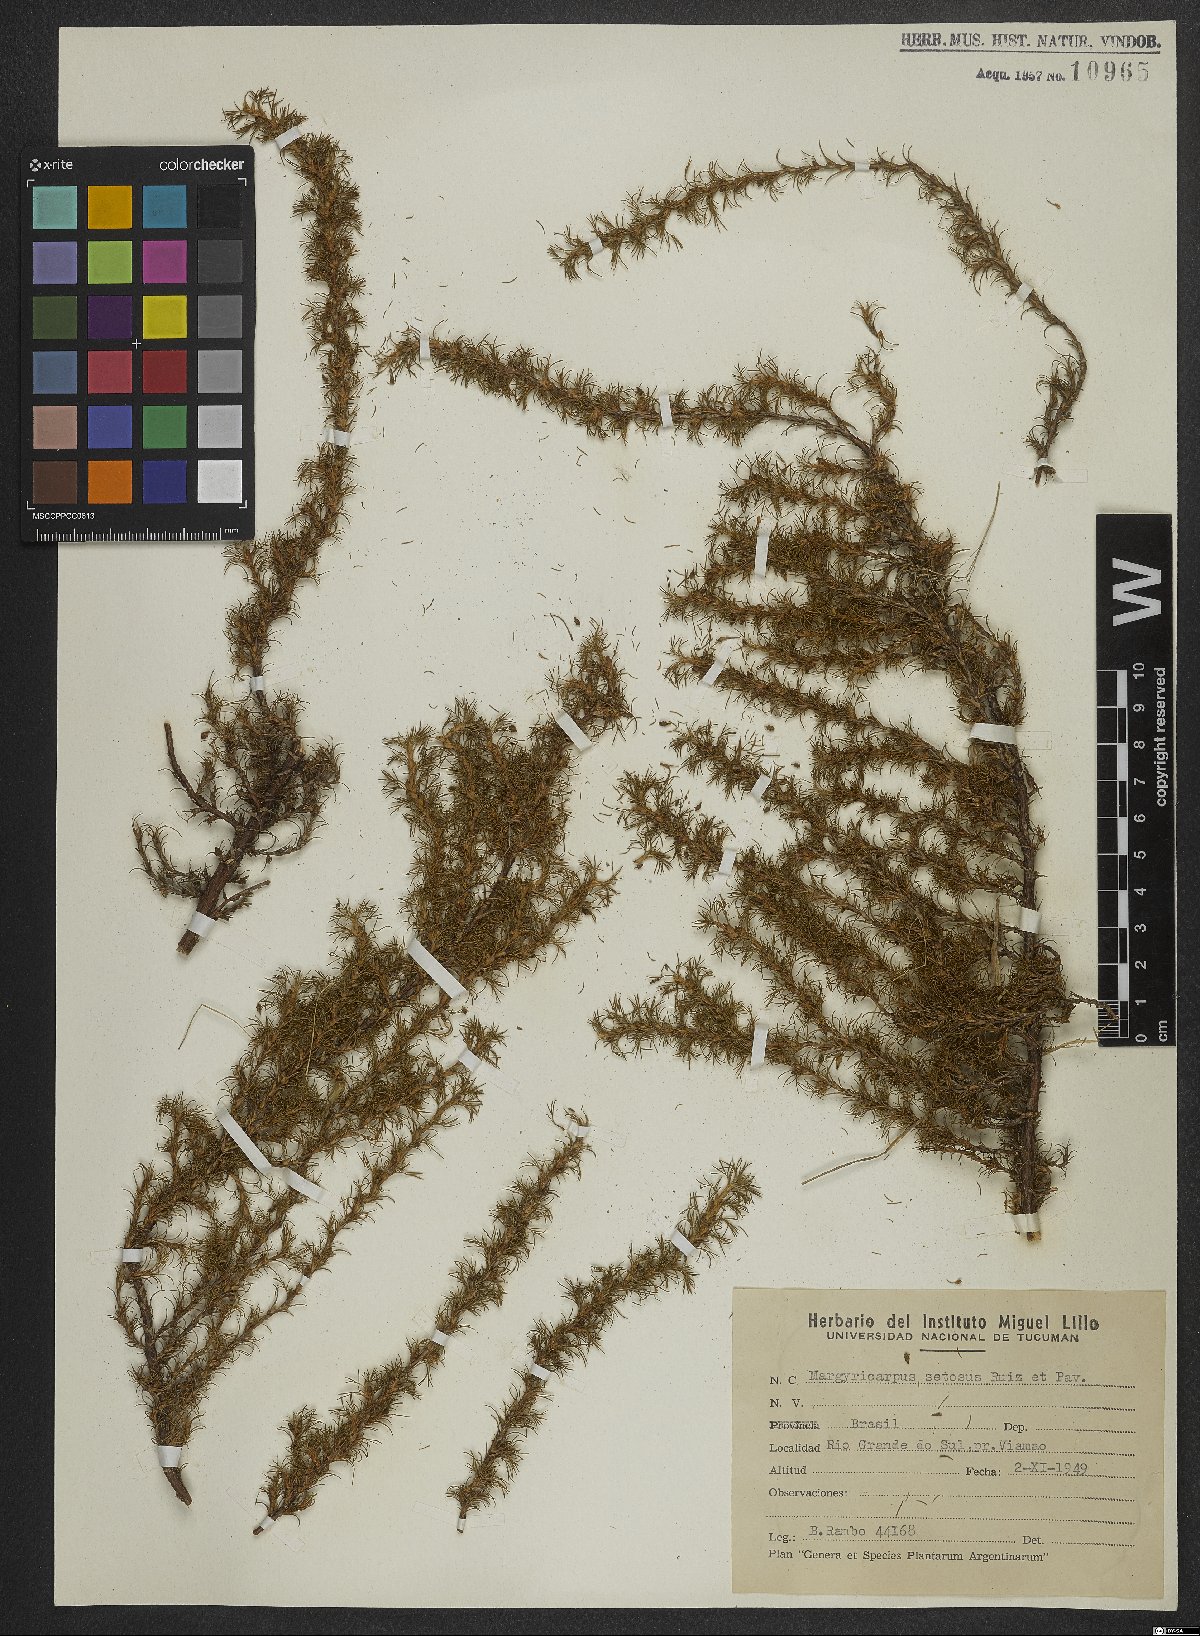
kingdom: Plantae
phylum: Tracheophyta
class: Magnoliopsida
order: Rosales
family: Rosaceae
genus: Margyricarpus
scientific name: Margyricarpus pinnatus
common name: Pearlfruit
